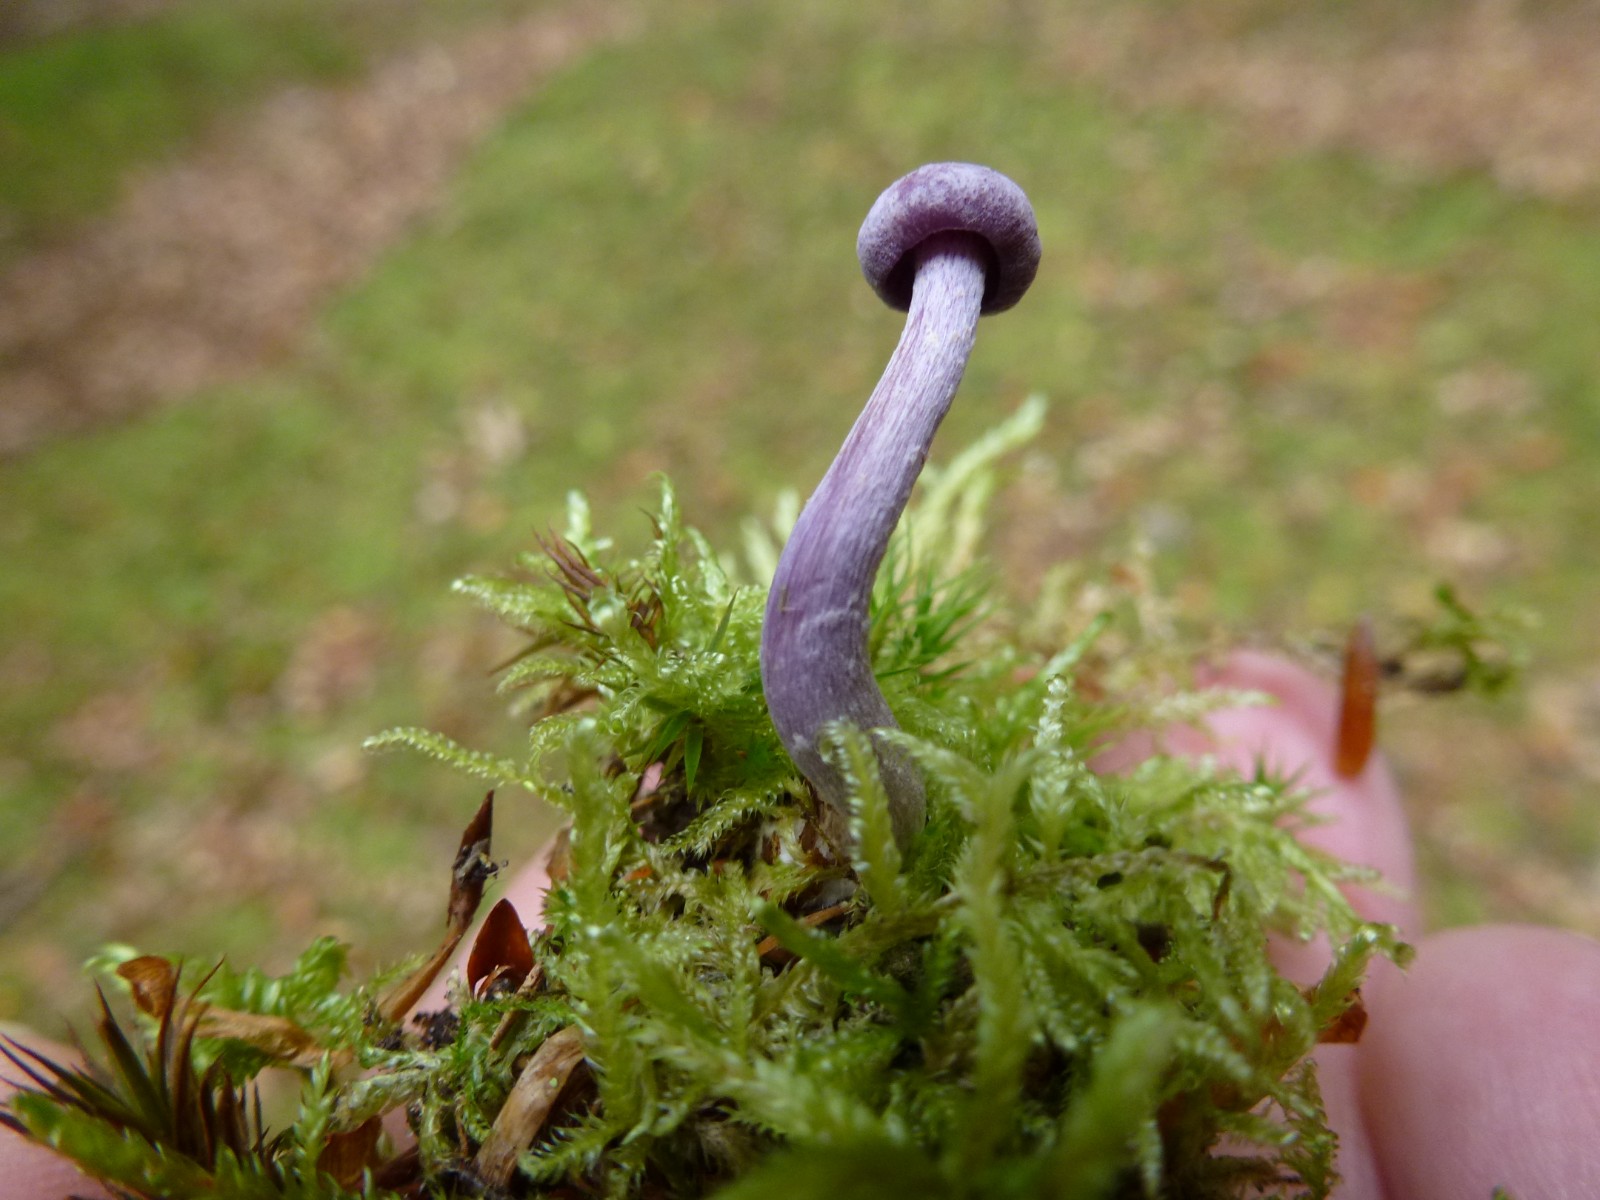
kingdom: Fungi
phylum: Basidiomycota
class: Agaricomycetes
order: Agaricales
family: Hydnangiaceae
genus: Laccaria
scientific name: Laccaria amethystina
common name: violet ametysthat
